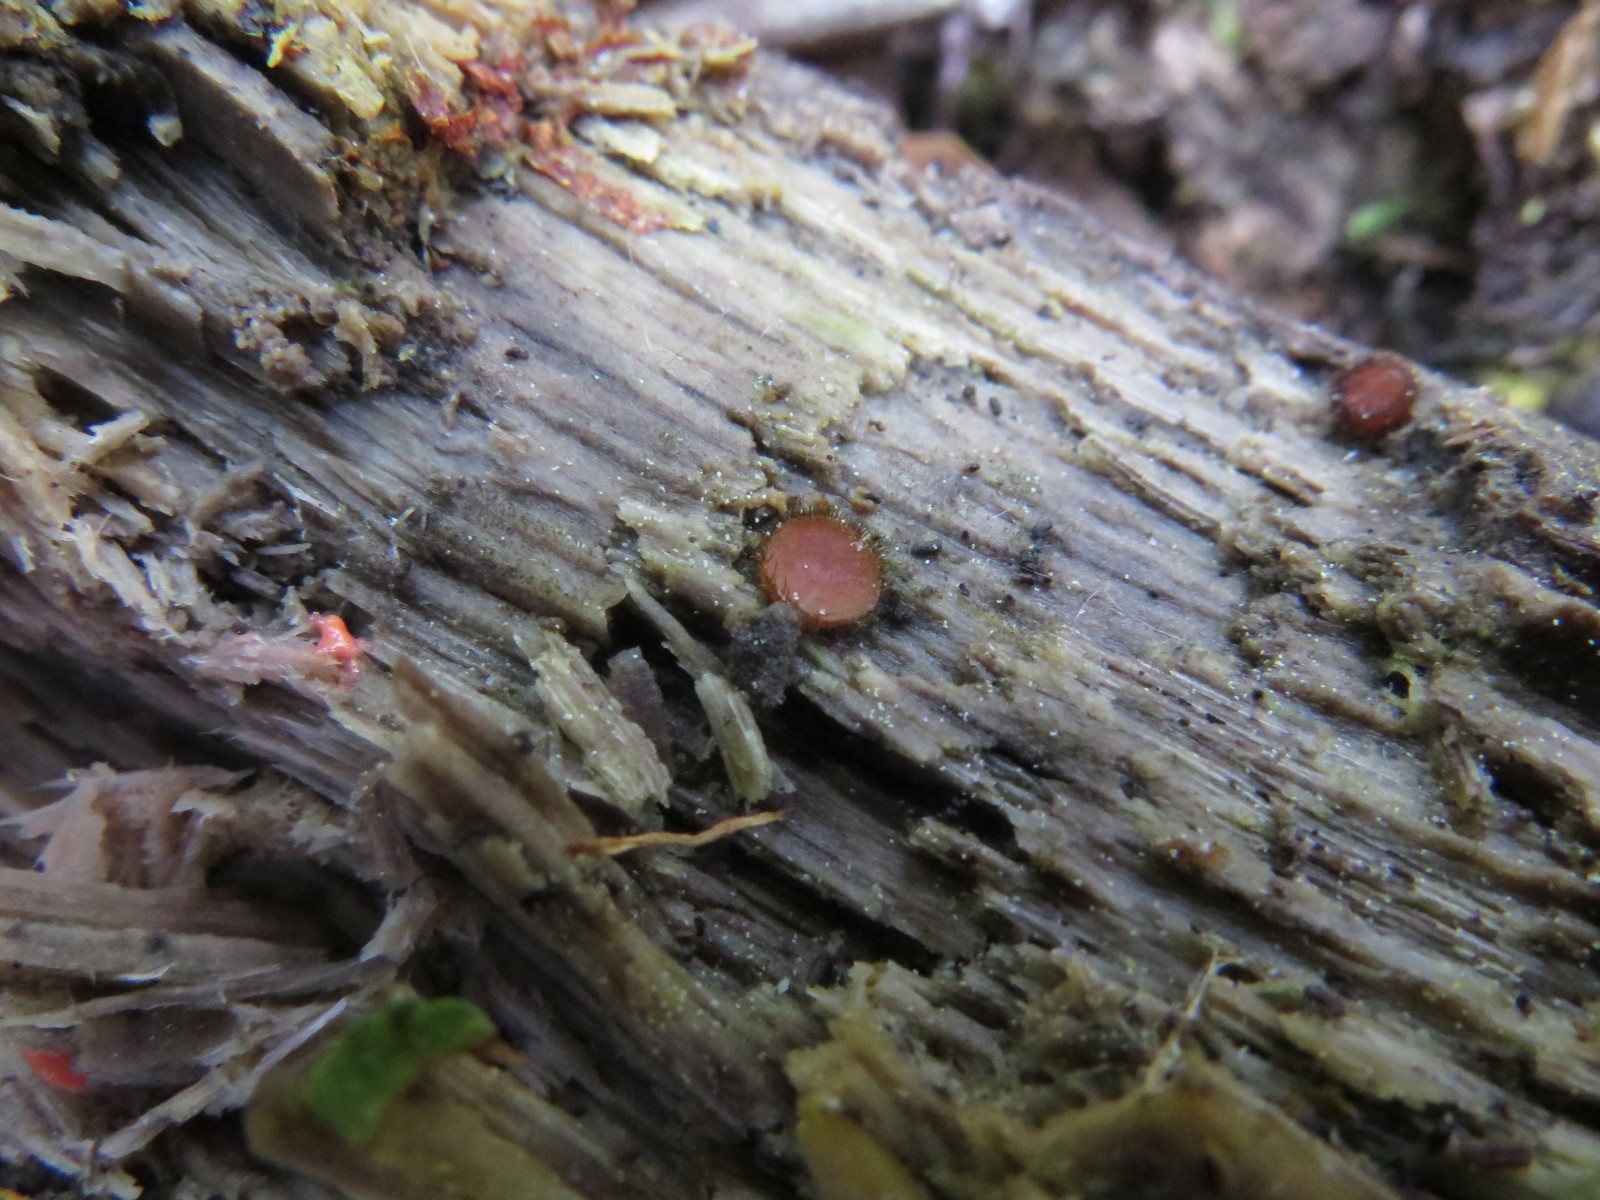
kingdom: Fungi
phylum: Ascomycota
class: Pezizomycetes
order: Pezizales
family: Pyronemataceae
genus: Scutellinia
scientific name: Scutellinia scutellata
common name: frynset skjoldbæger
